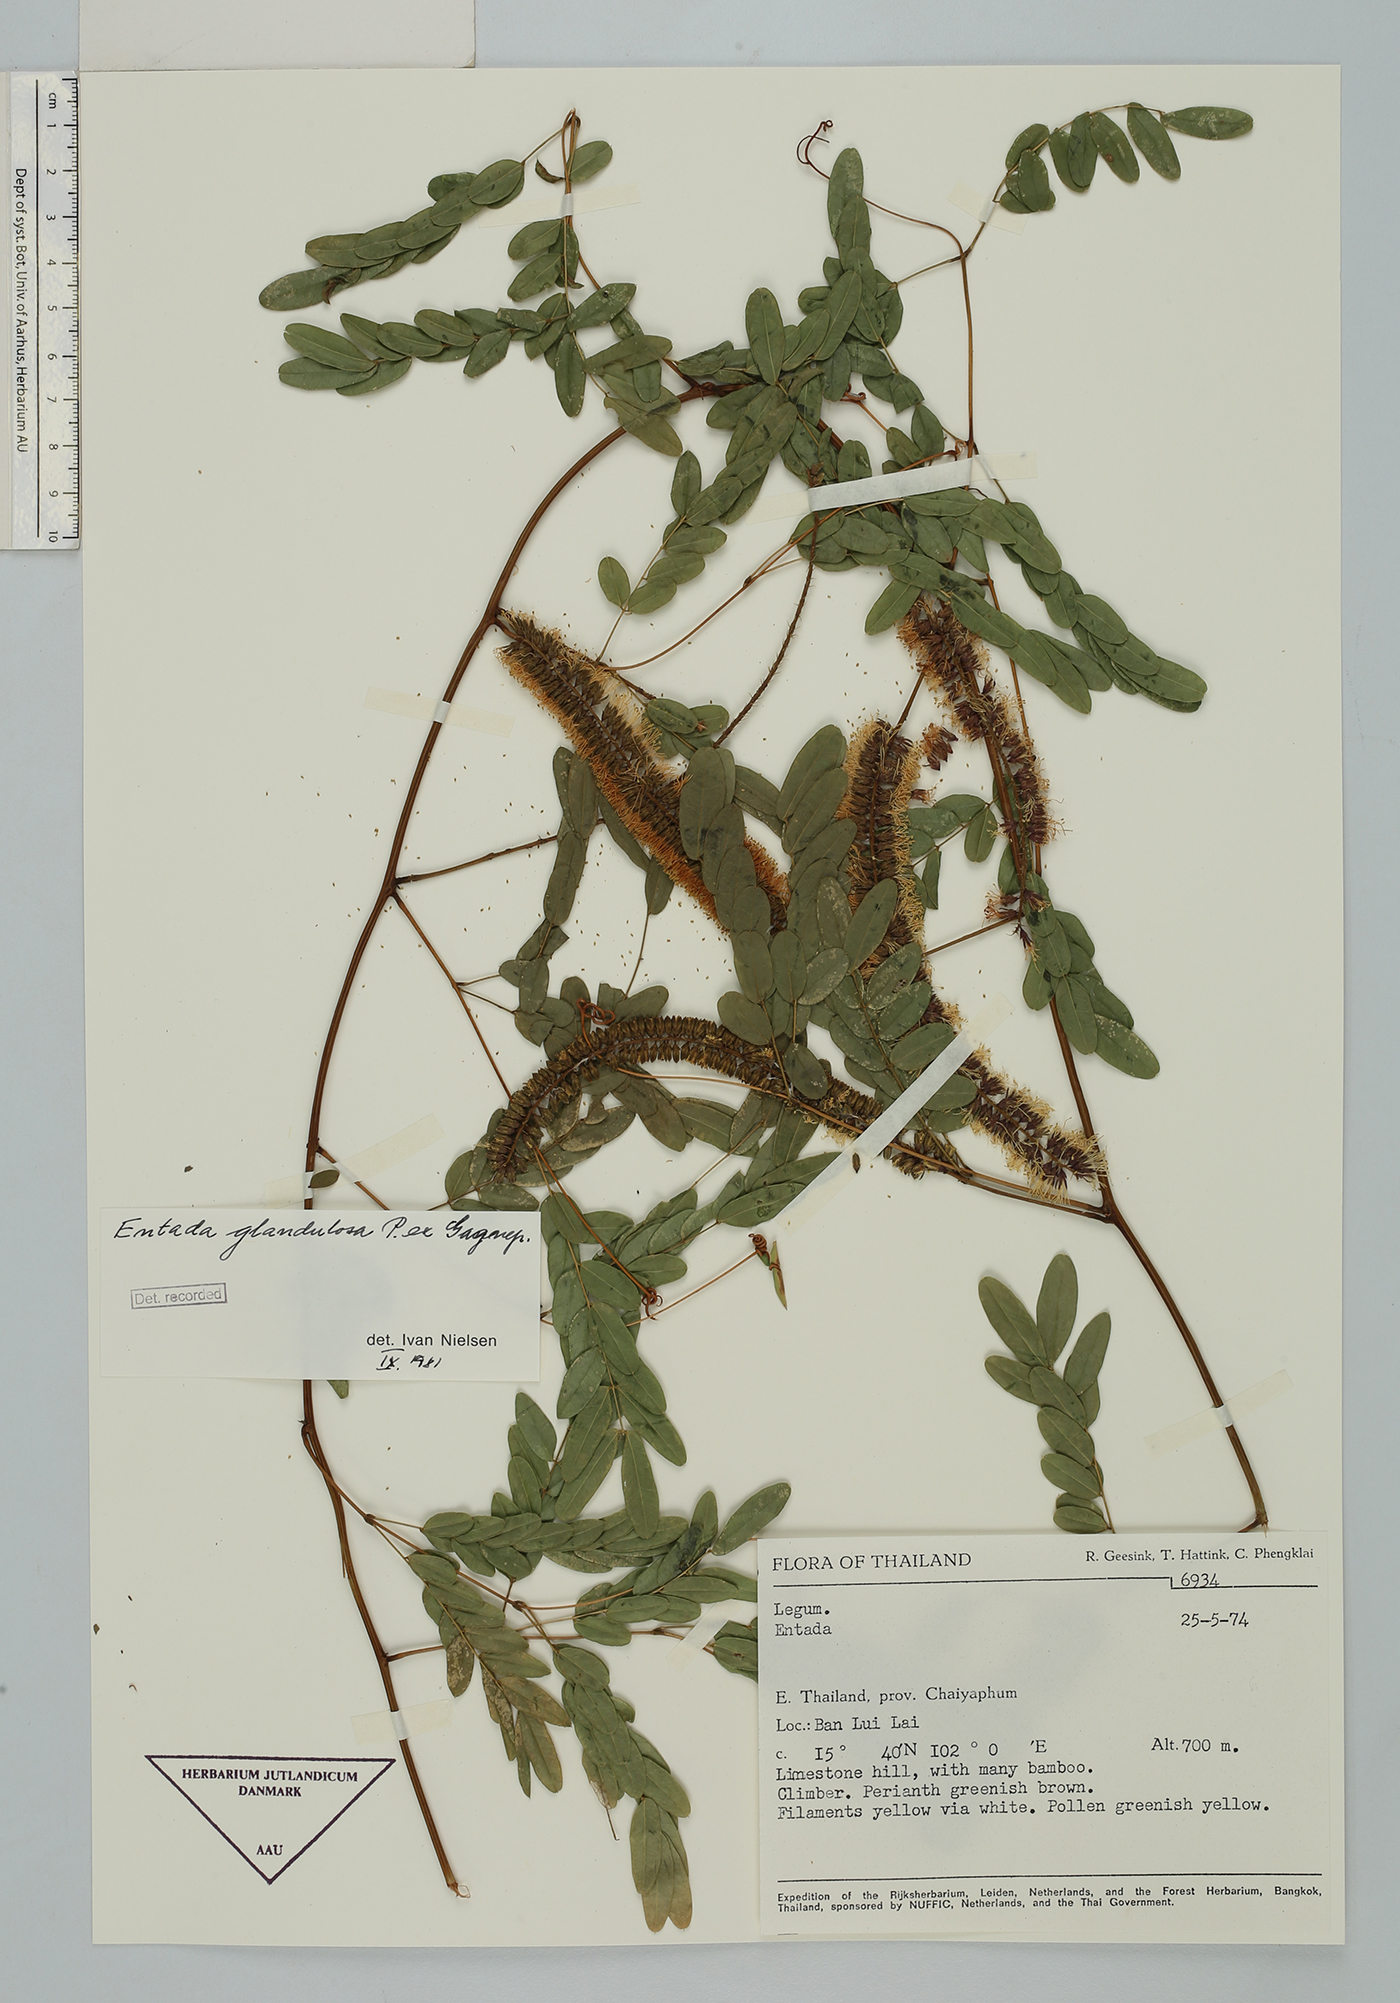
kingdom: Plantae
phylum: Tracheophyta
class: Magnoliopsida
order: Fabales
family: Fabaceae
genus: Entada
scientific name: Entada glandulosa
